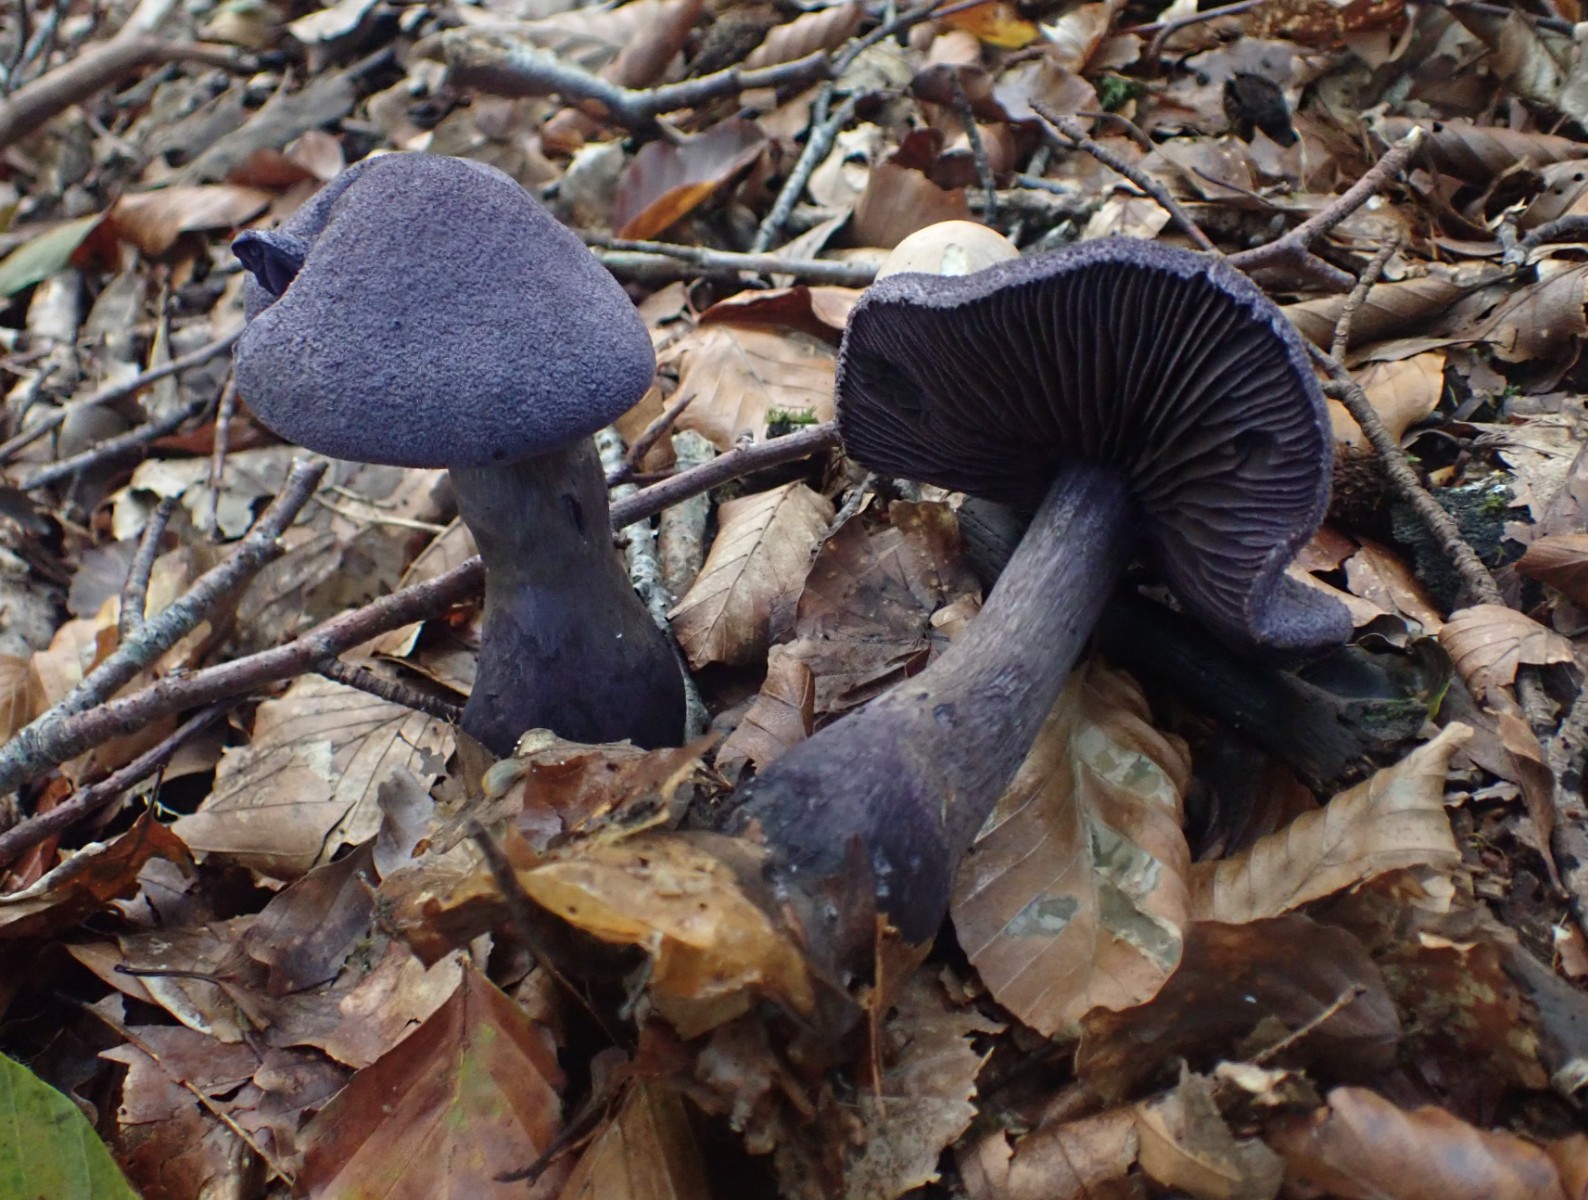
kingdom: Fungi
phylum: Basidiomycota
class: Agaricomycetes
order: Agaricales
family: Cortinariaceae
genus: Cortinarius
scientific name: Cortinarius violaceus
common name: mørkviolet slørhat
